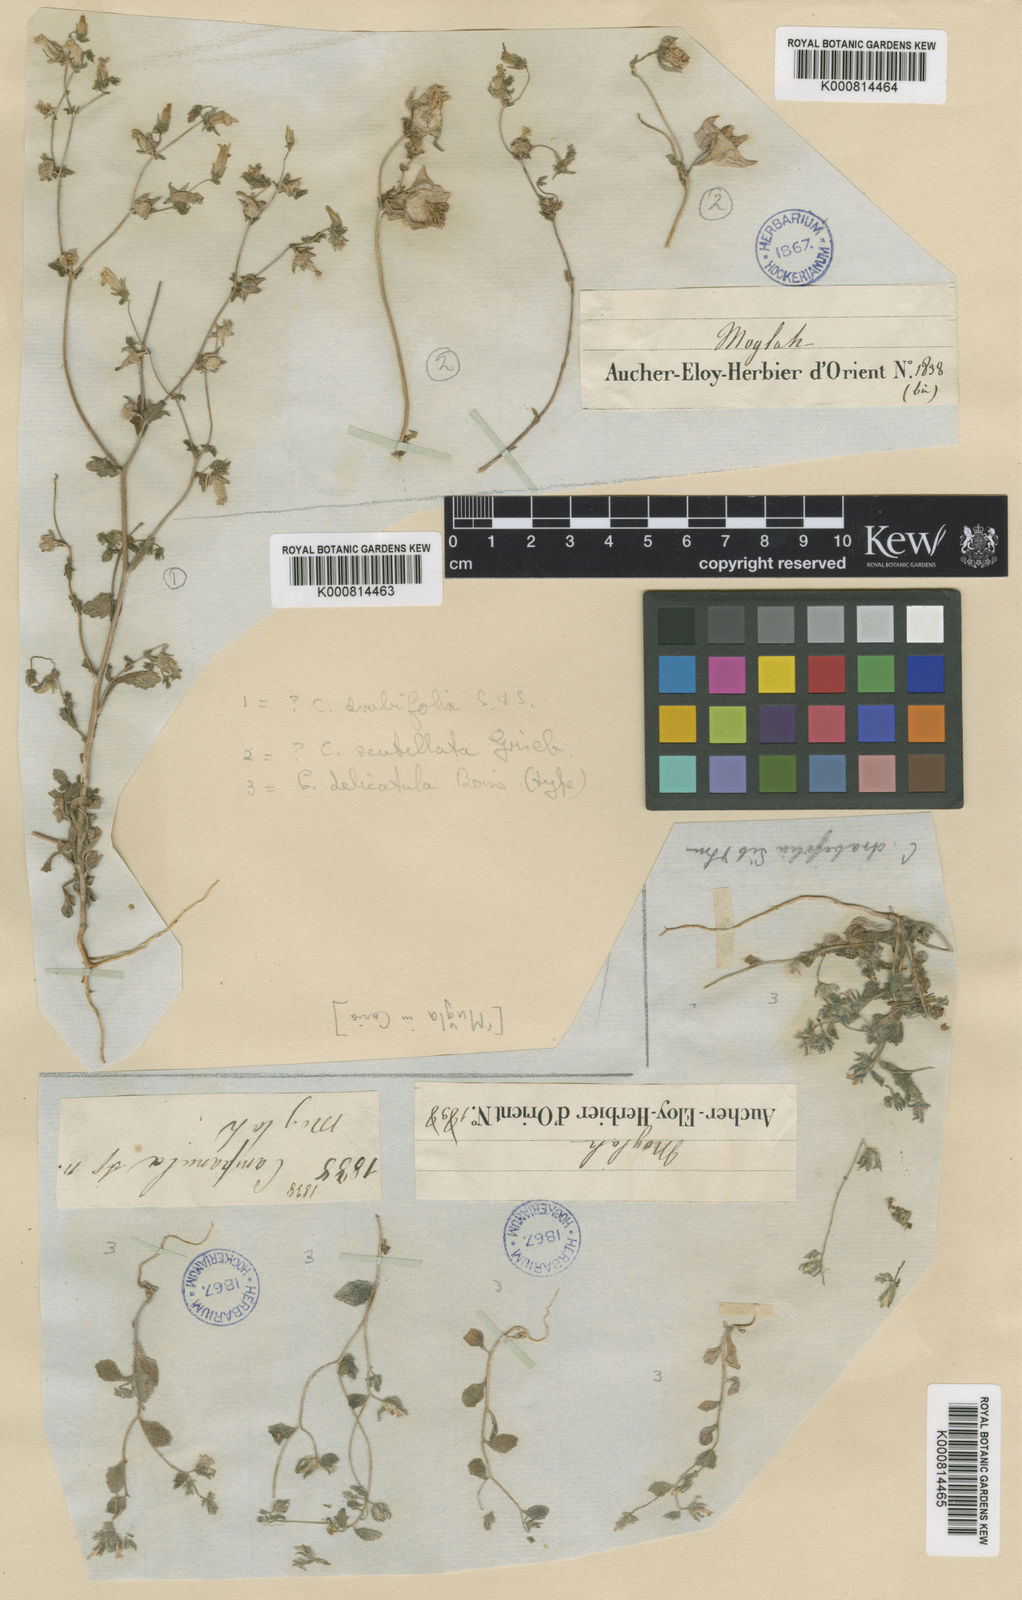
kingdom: Plantae
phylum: Tracheophyta
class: Magnoliopsida
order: Asterales
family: Campanulaceae
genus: Campanula
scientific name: Campanula drabifolia
